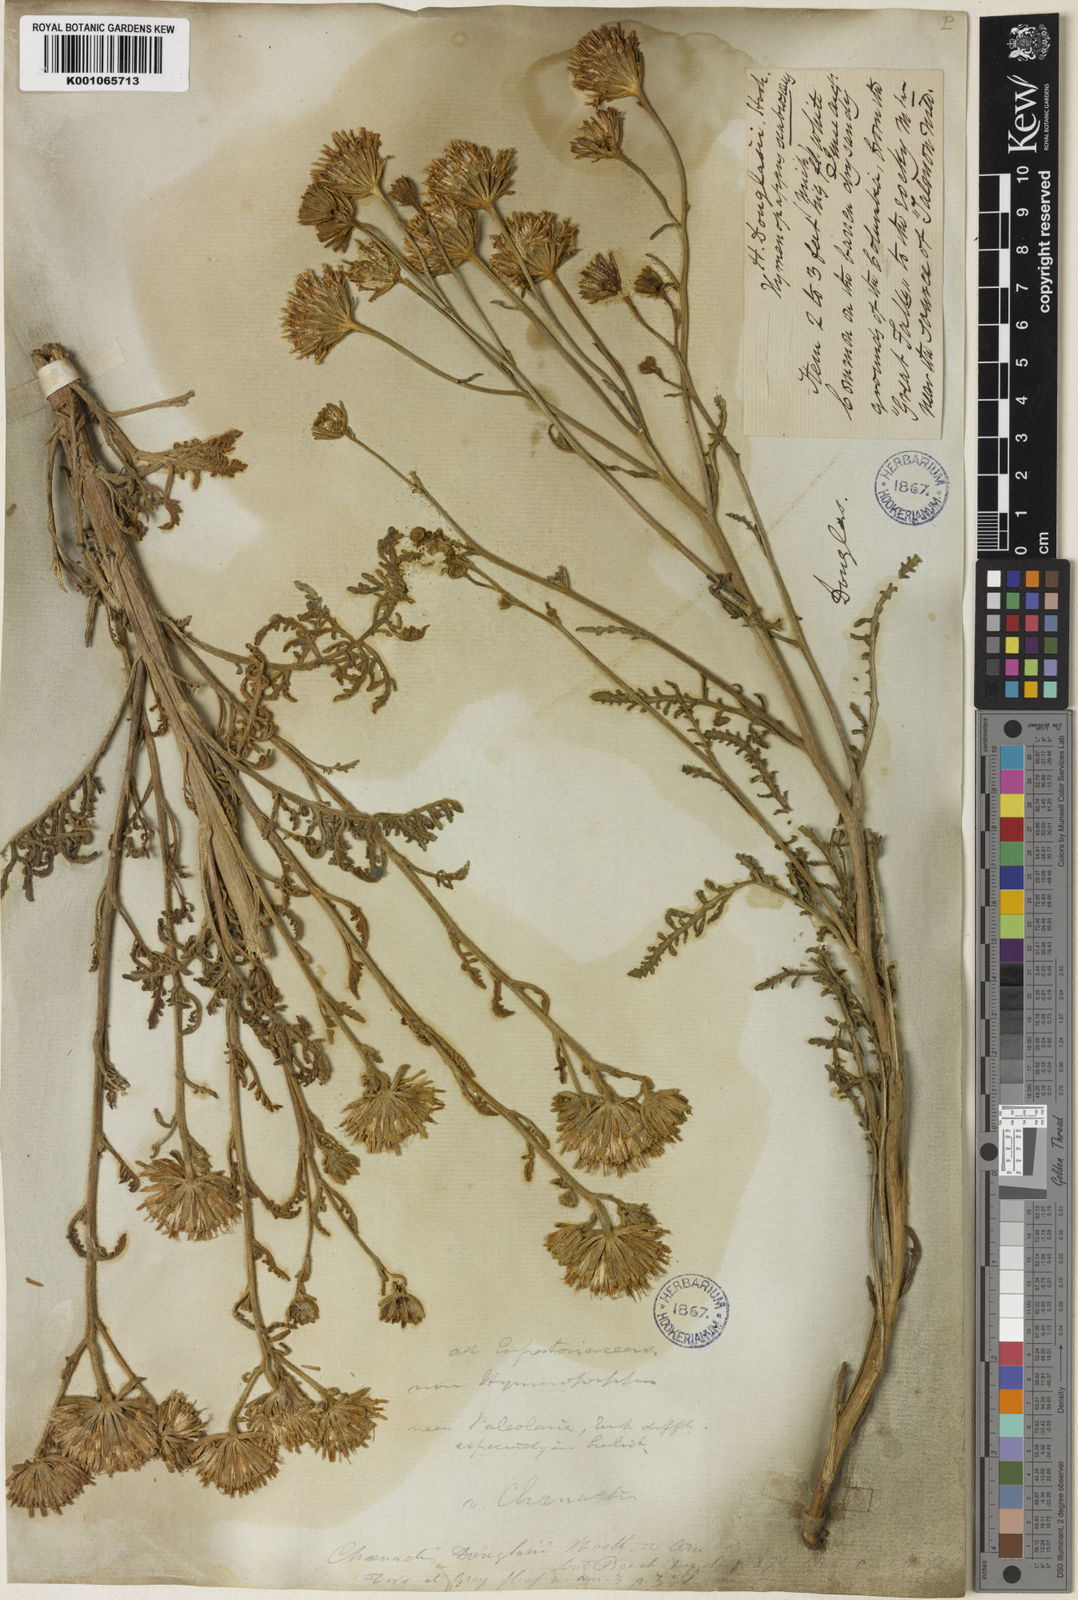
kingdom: Plantae
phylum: Tracheophyta
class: Magnoliopsida
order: Asterales
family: Asteraceae
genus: Chaenactis
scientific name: Chaenactis douglasii
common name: Hoary pincushion
